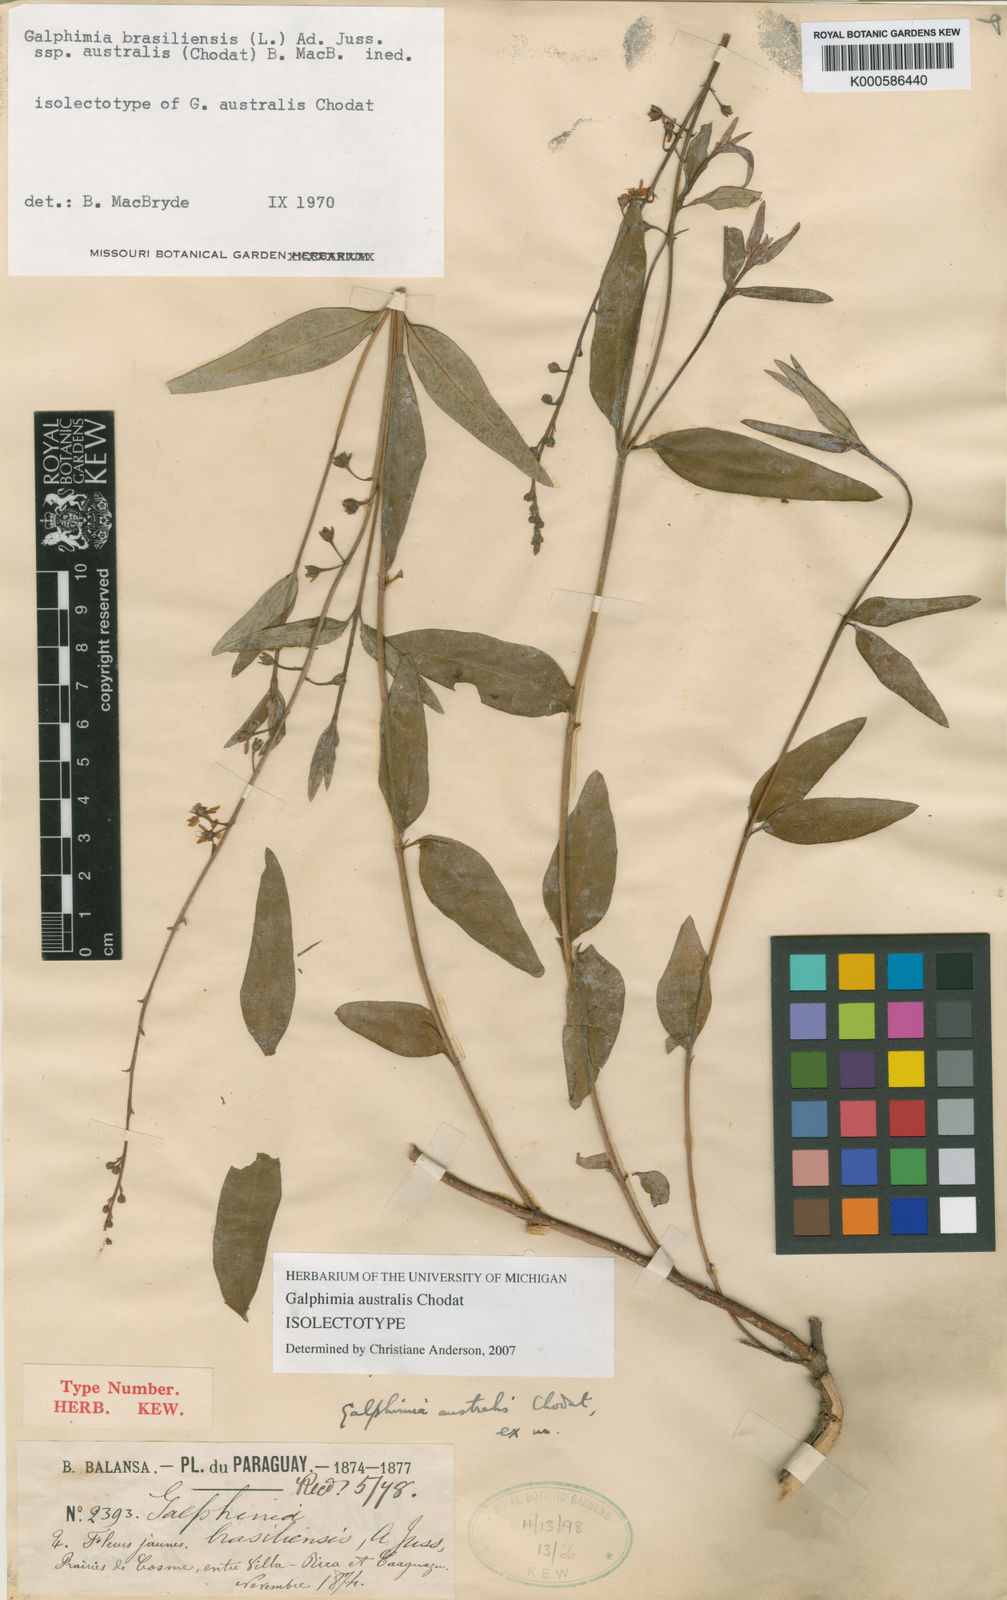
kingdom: Plantae
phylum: Tracheophyta
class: Magnoliopsida
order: Malpighiales
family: Malpighiaceae
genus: Galphimia
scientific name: Galphimia brasiliensis
